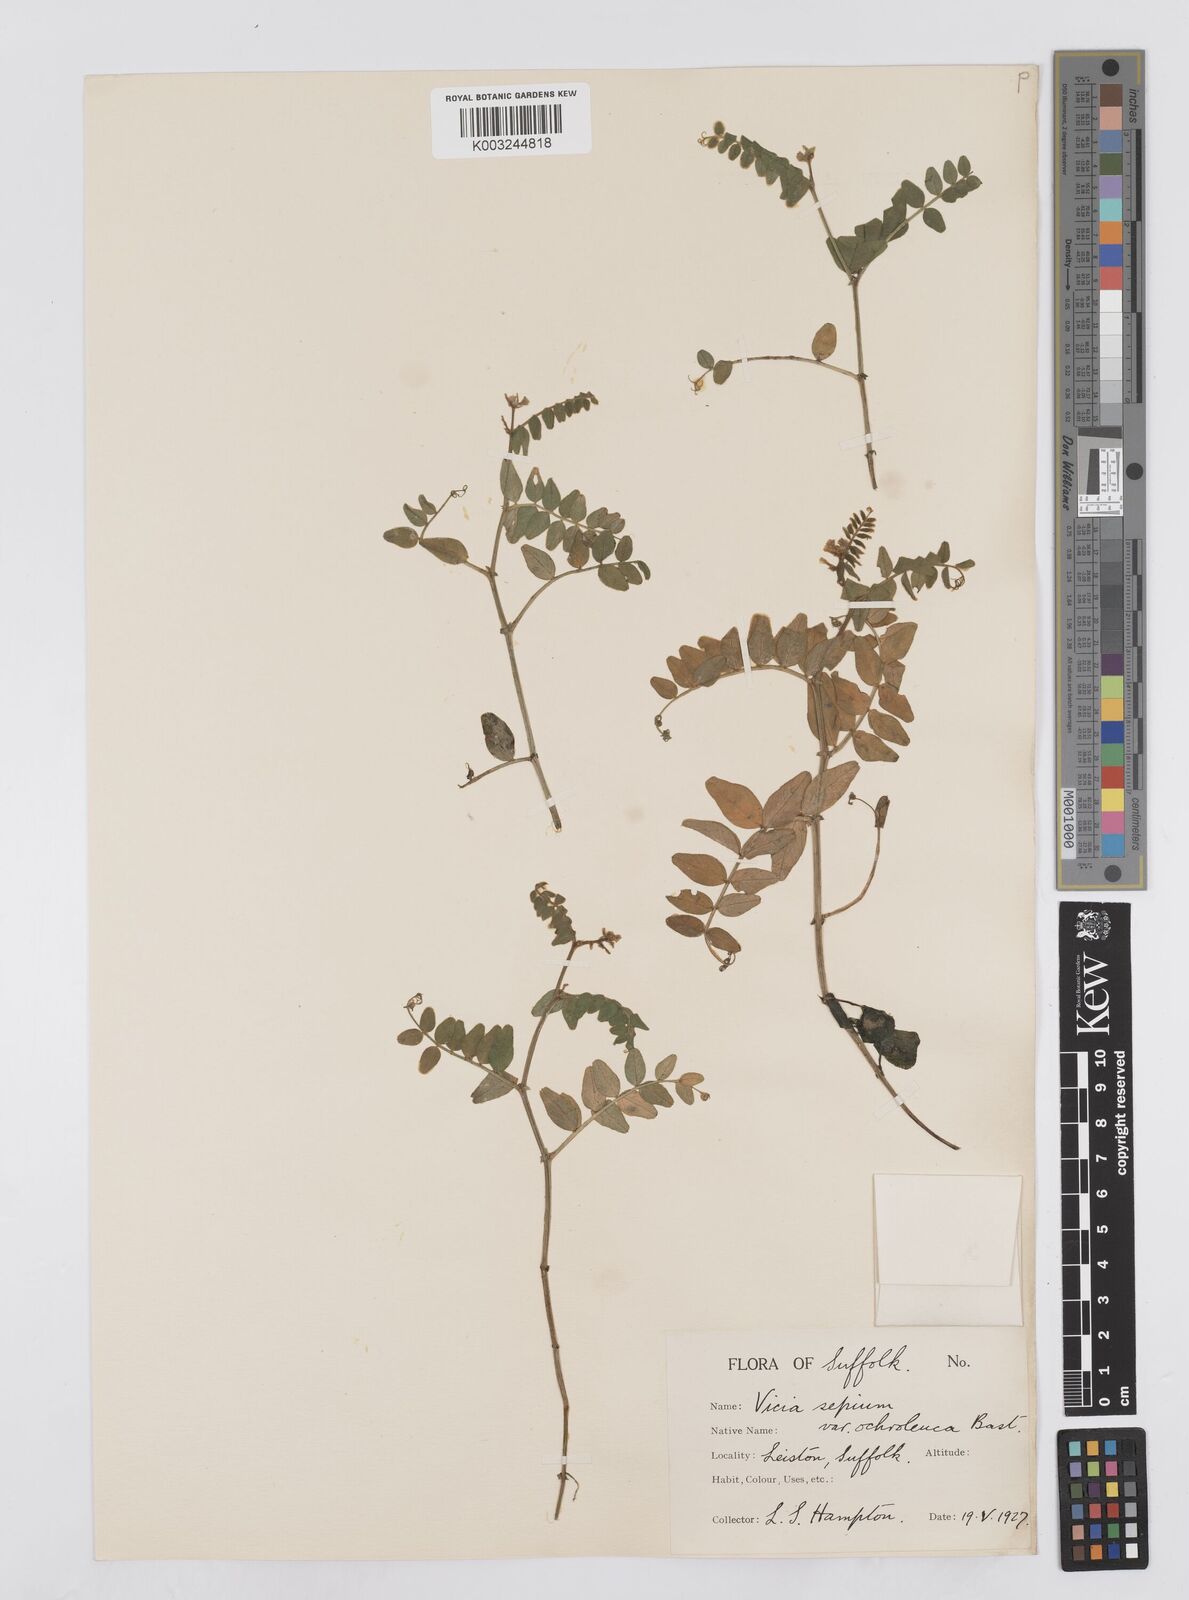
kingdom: Plantae
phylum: Tracheophyta
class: Magnoliopsida
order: Fabales
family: Fabaceae
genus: Vicia
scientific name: Vicia sepium
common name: Bush vetch
